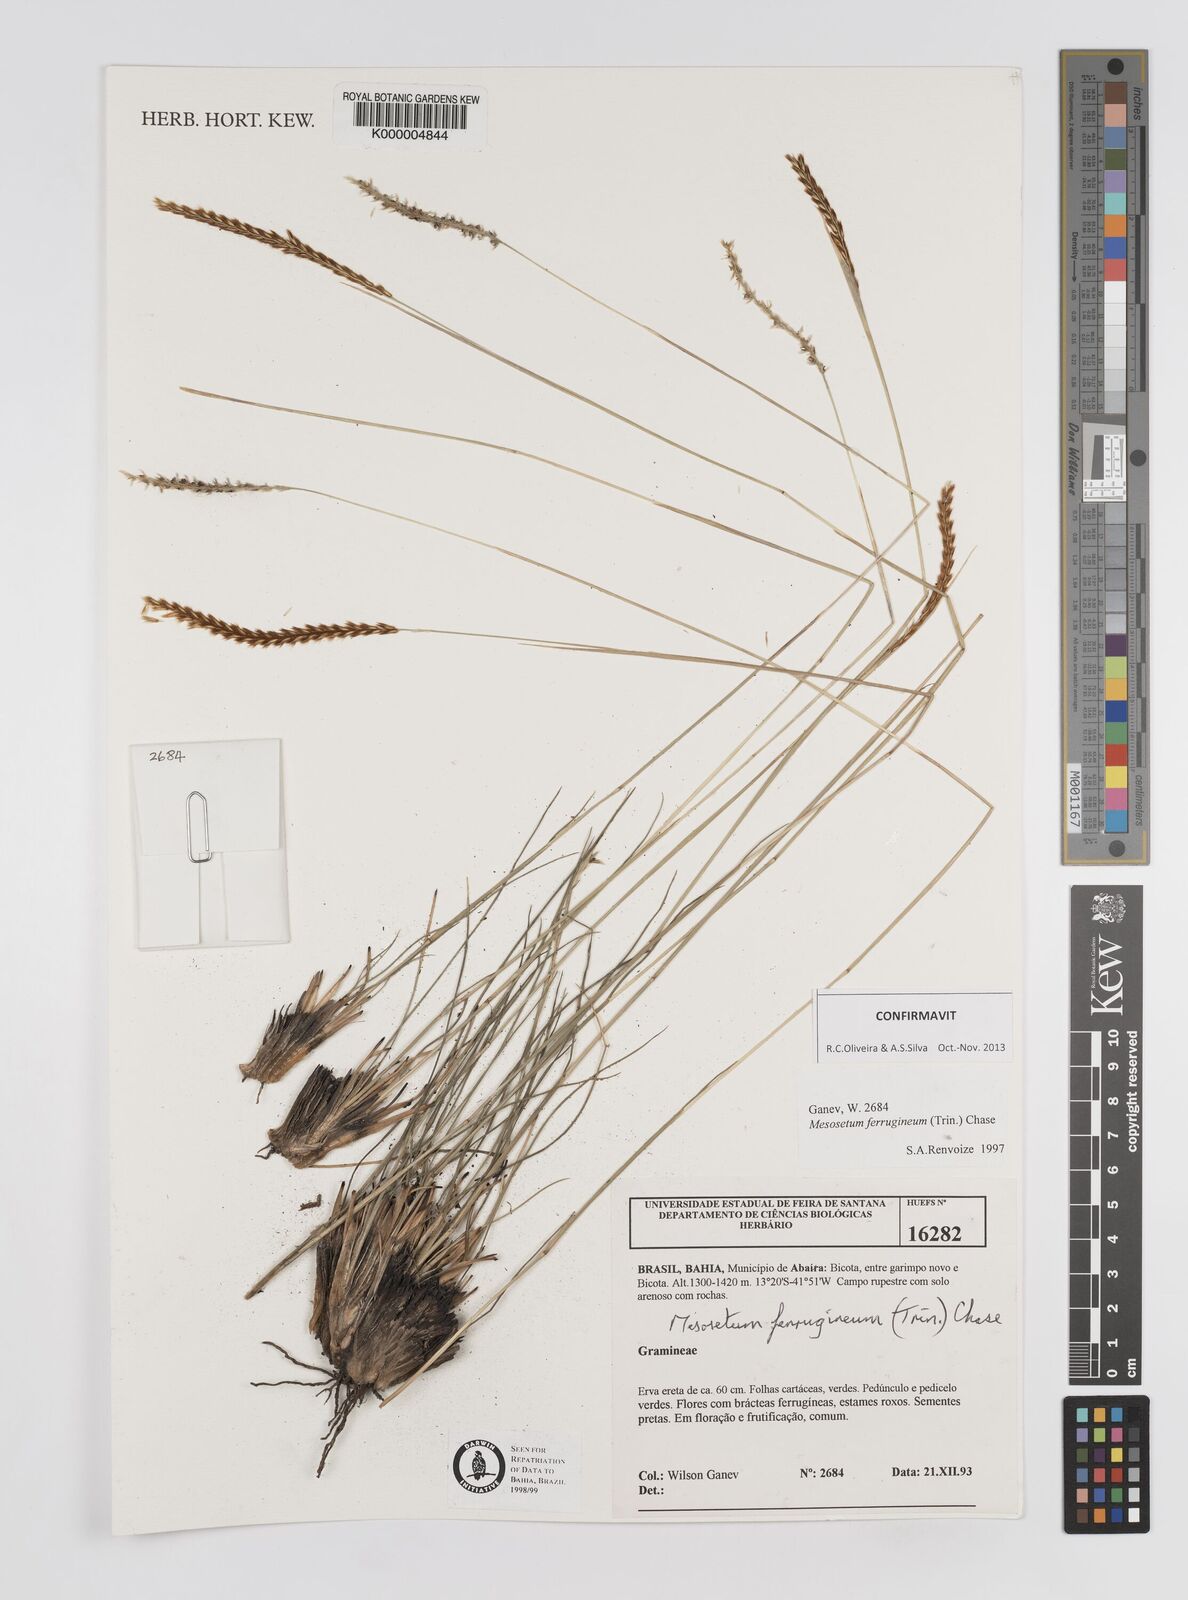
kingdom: Plantae
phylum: Tracheophyta
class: Liliopsida
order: Poales
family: Poaceae
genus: Mesosetum
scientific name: Mesosetum ferrugineum
